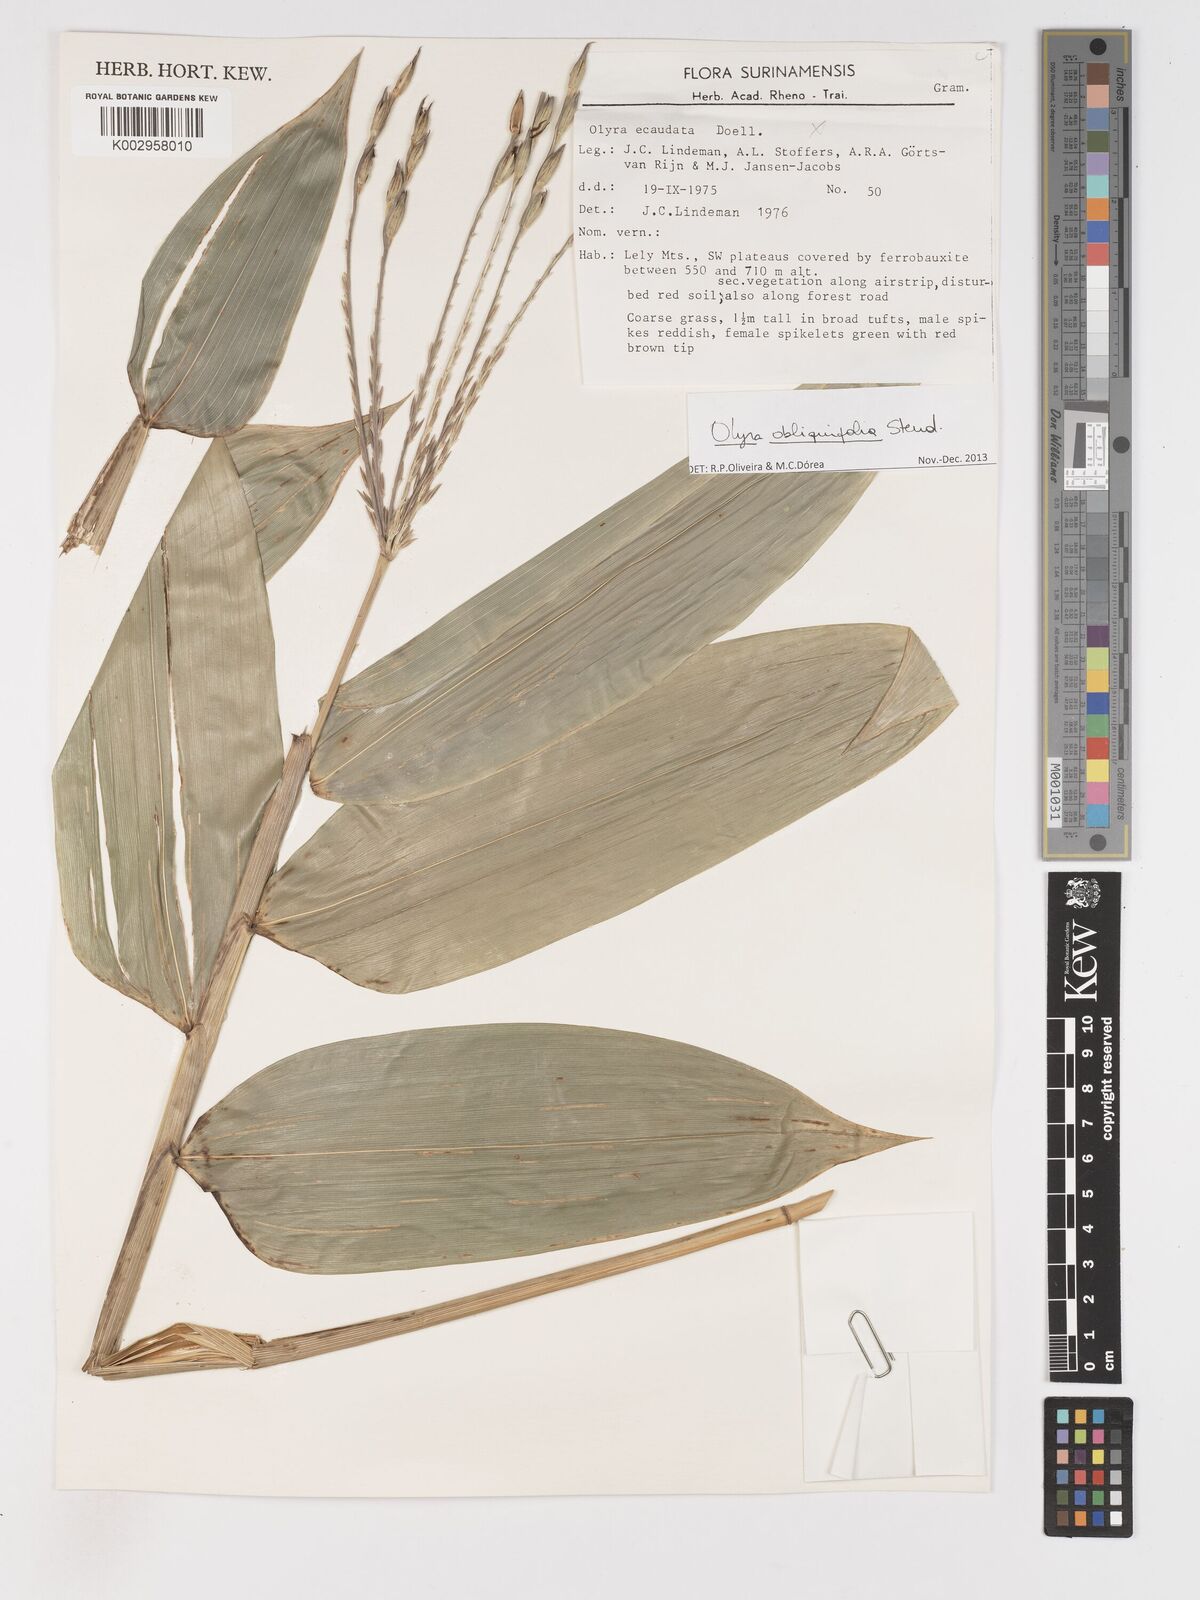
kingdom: Plantae
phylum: Tracheophyta
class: Liliopsida
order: Poales
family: Poaceae
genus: Olyra
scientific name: Olyra obliquifolia
